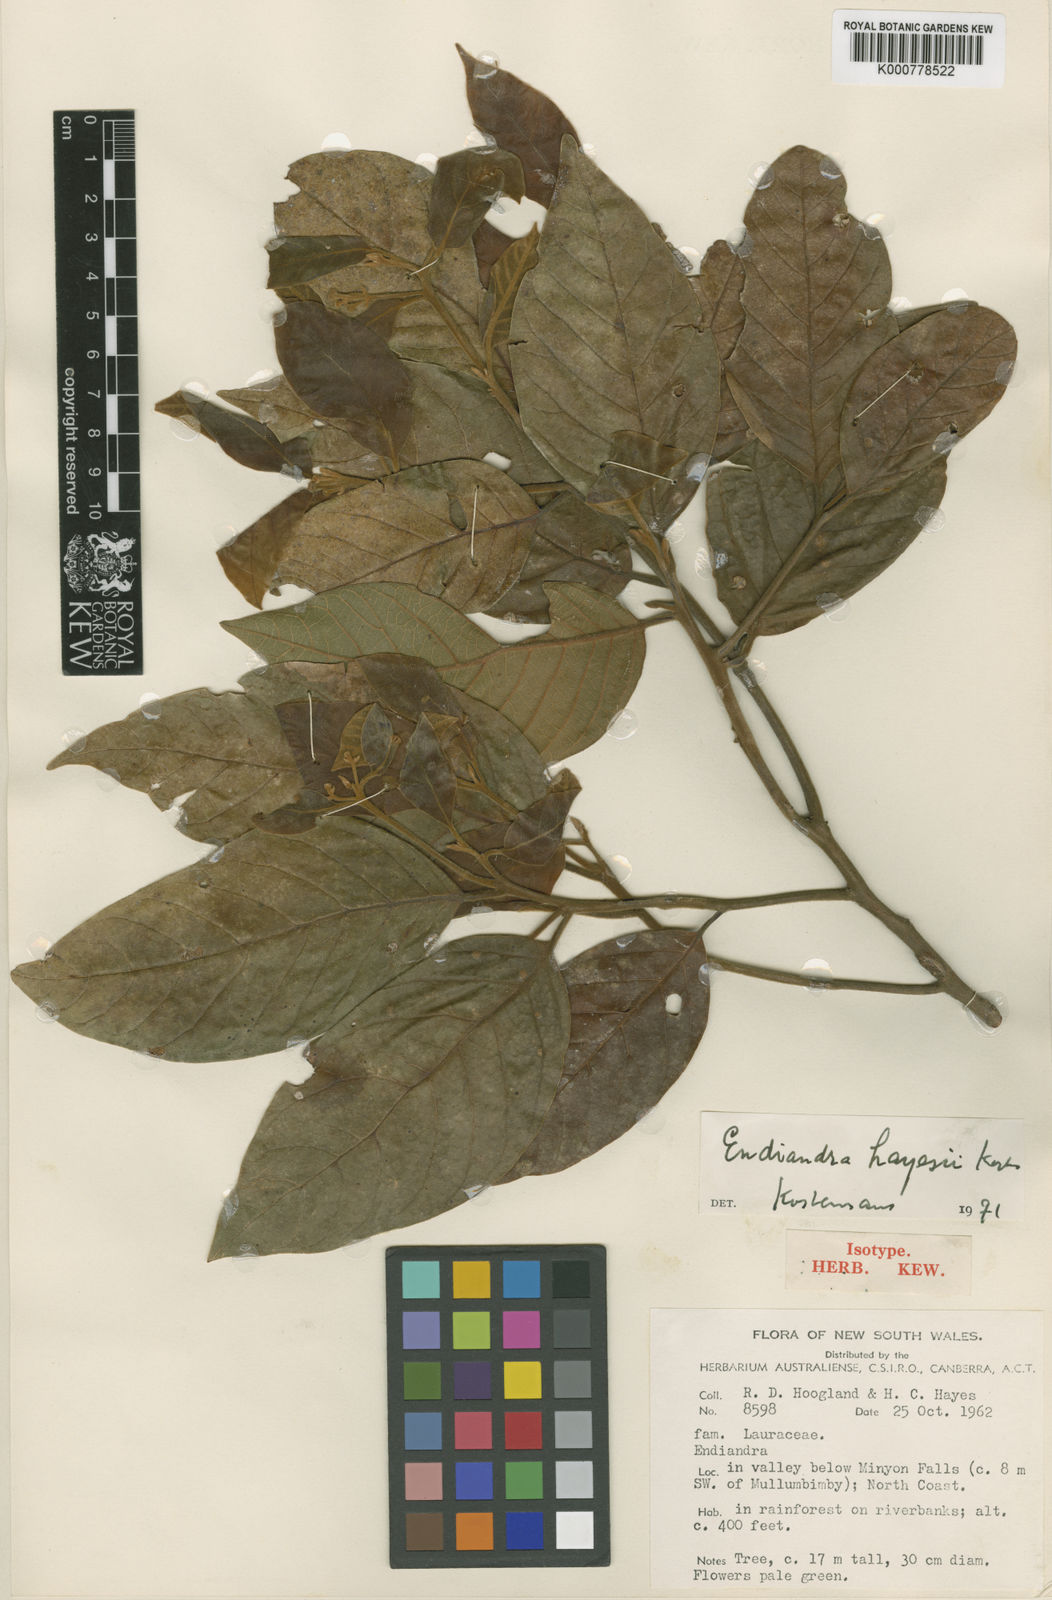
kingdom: Plantae
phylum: Tracheophyta
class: Magnoliopsida
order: Laurales
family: Lauraceae
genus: Endiandra
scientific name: Endiandra hayesii
